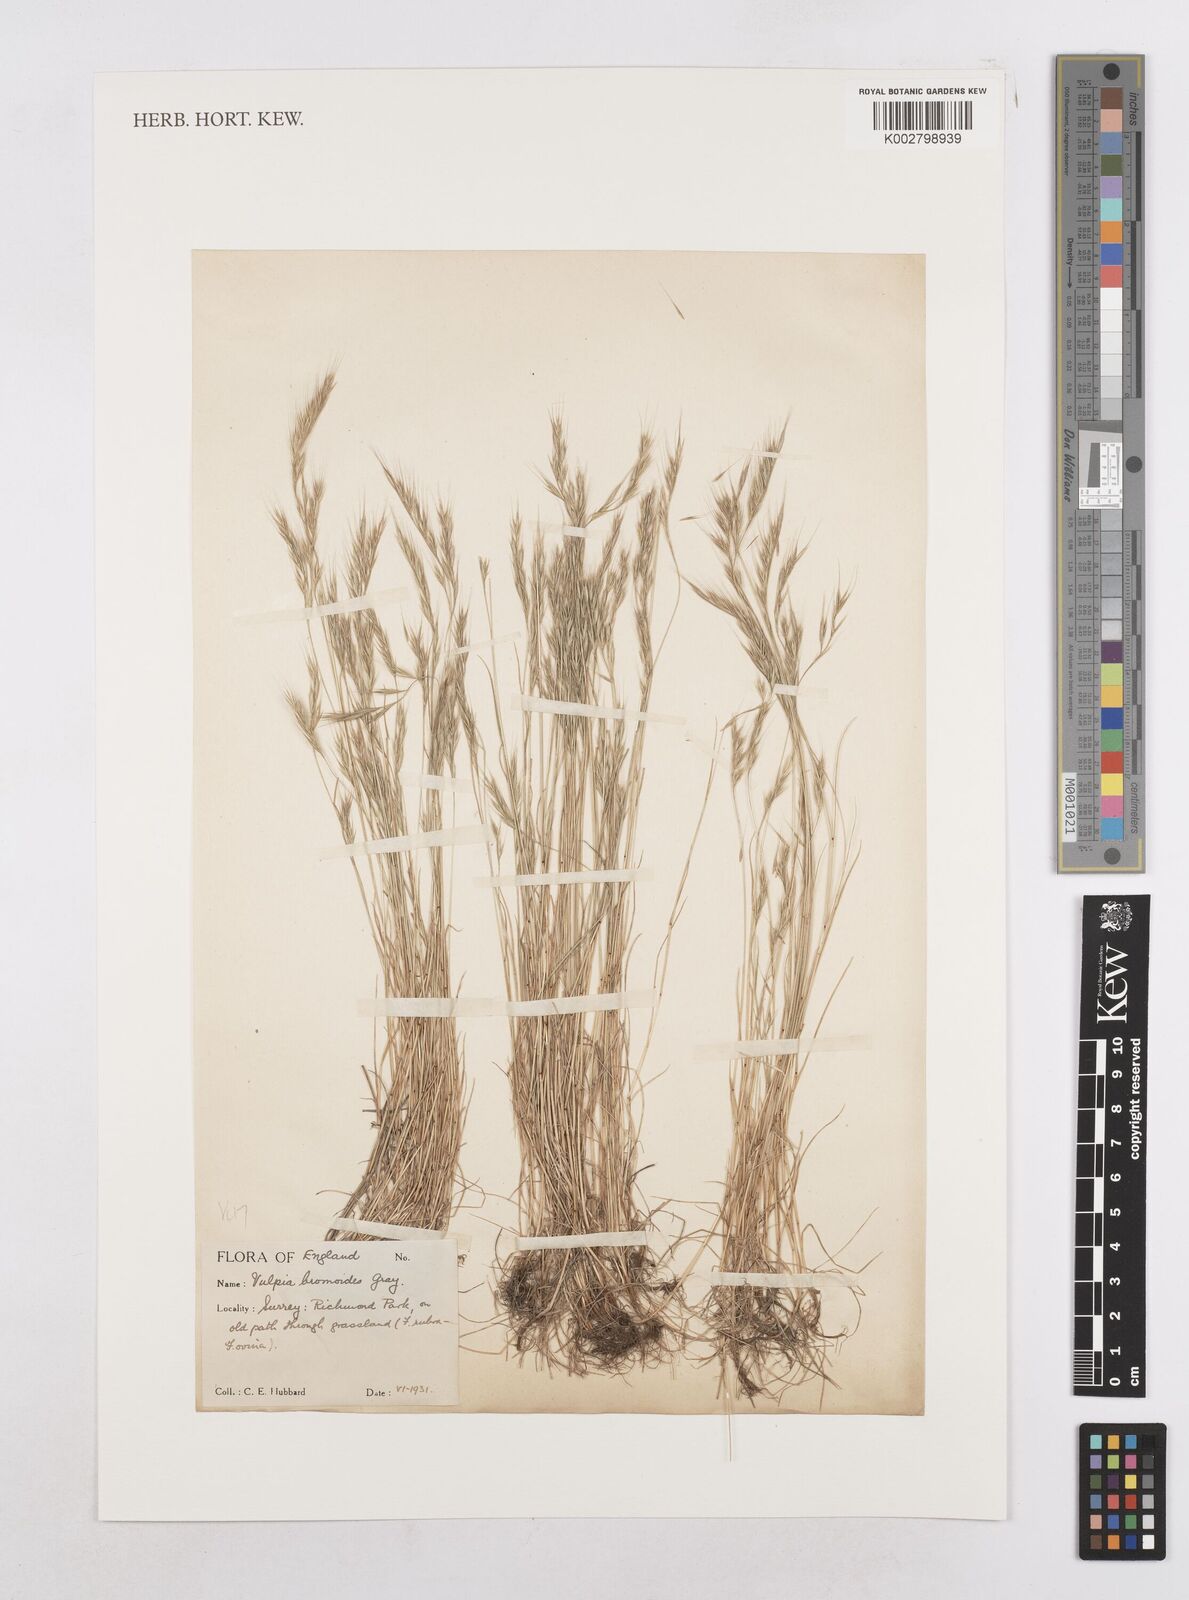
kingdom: Plantae
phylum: Tracheophyta
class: Liliopsida
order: Poales
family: Poaceae
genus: Festuca
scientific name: Festuca bromoides
